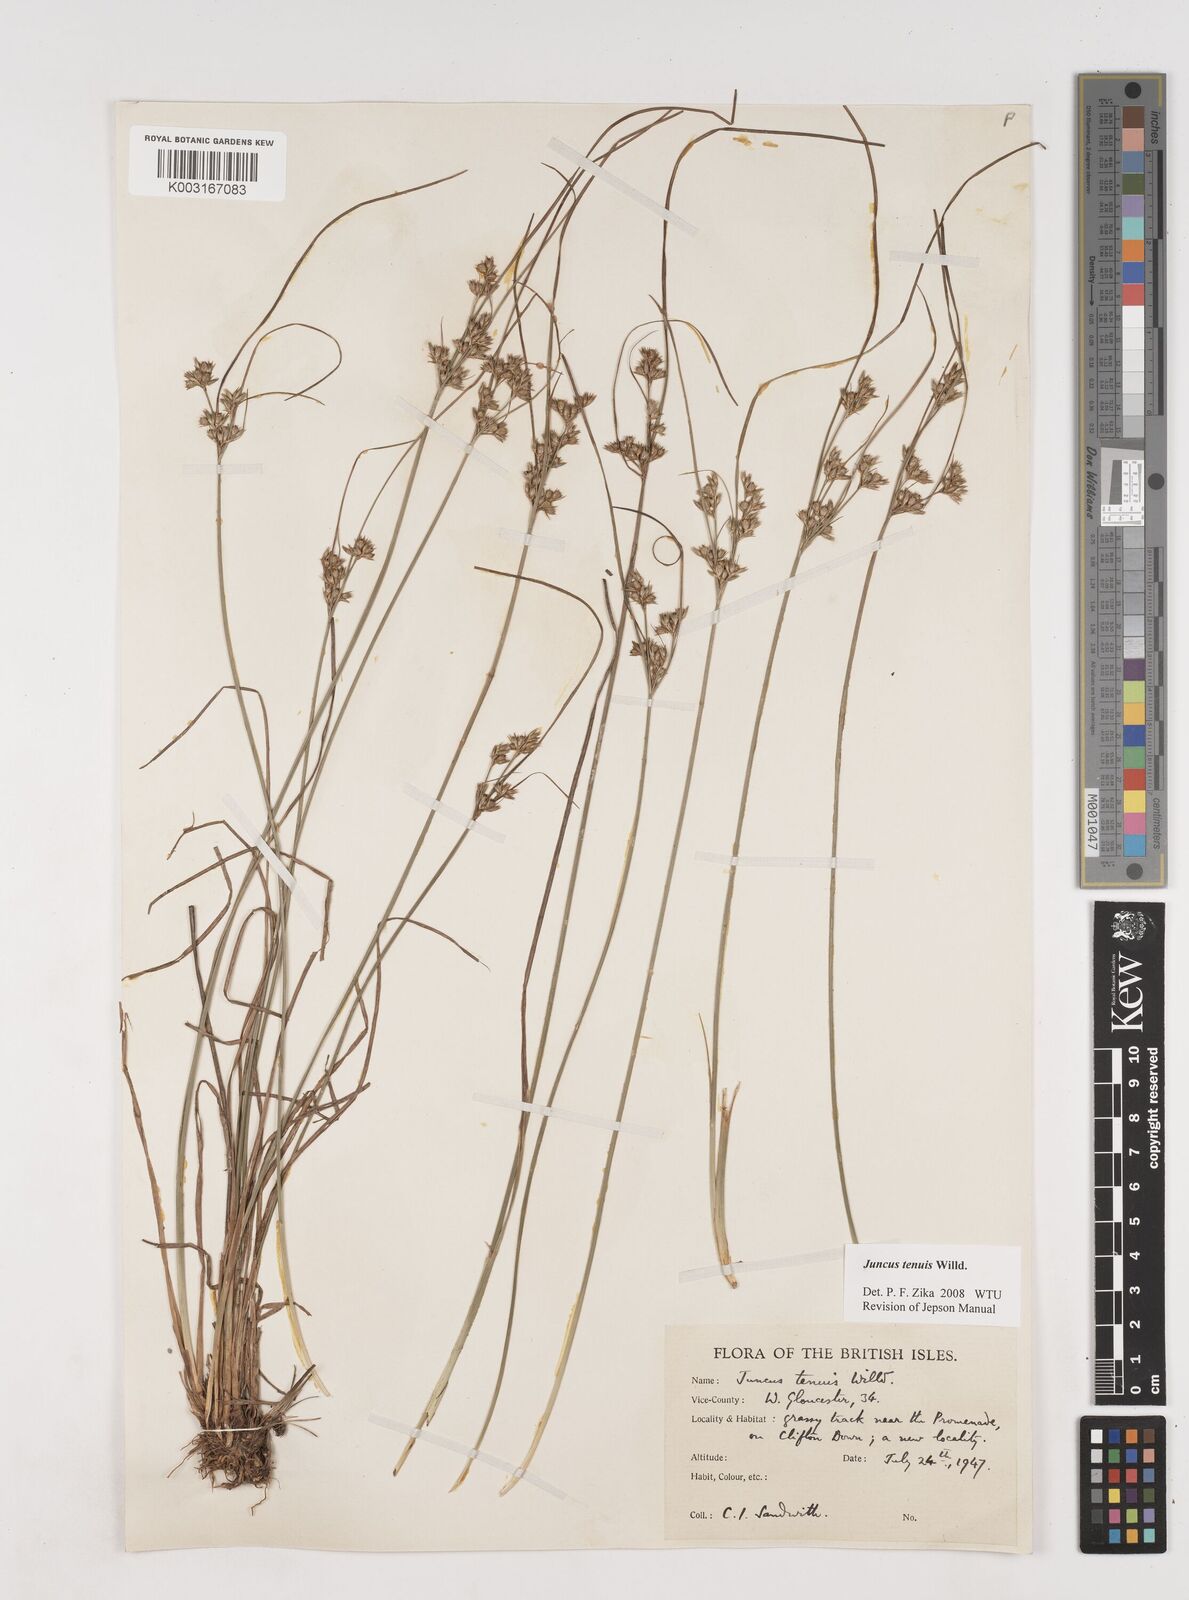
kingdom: Plantae
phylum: Tracheophyta
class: Liliopsida
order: Poales
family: Juncaceae
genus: Juncus
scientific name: Juncus tenuis
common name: Slender rush
